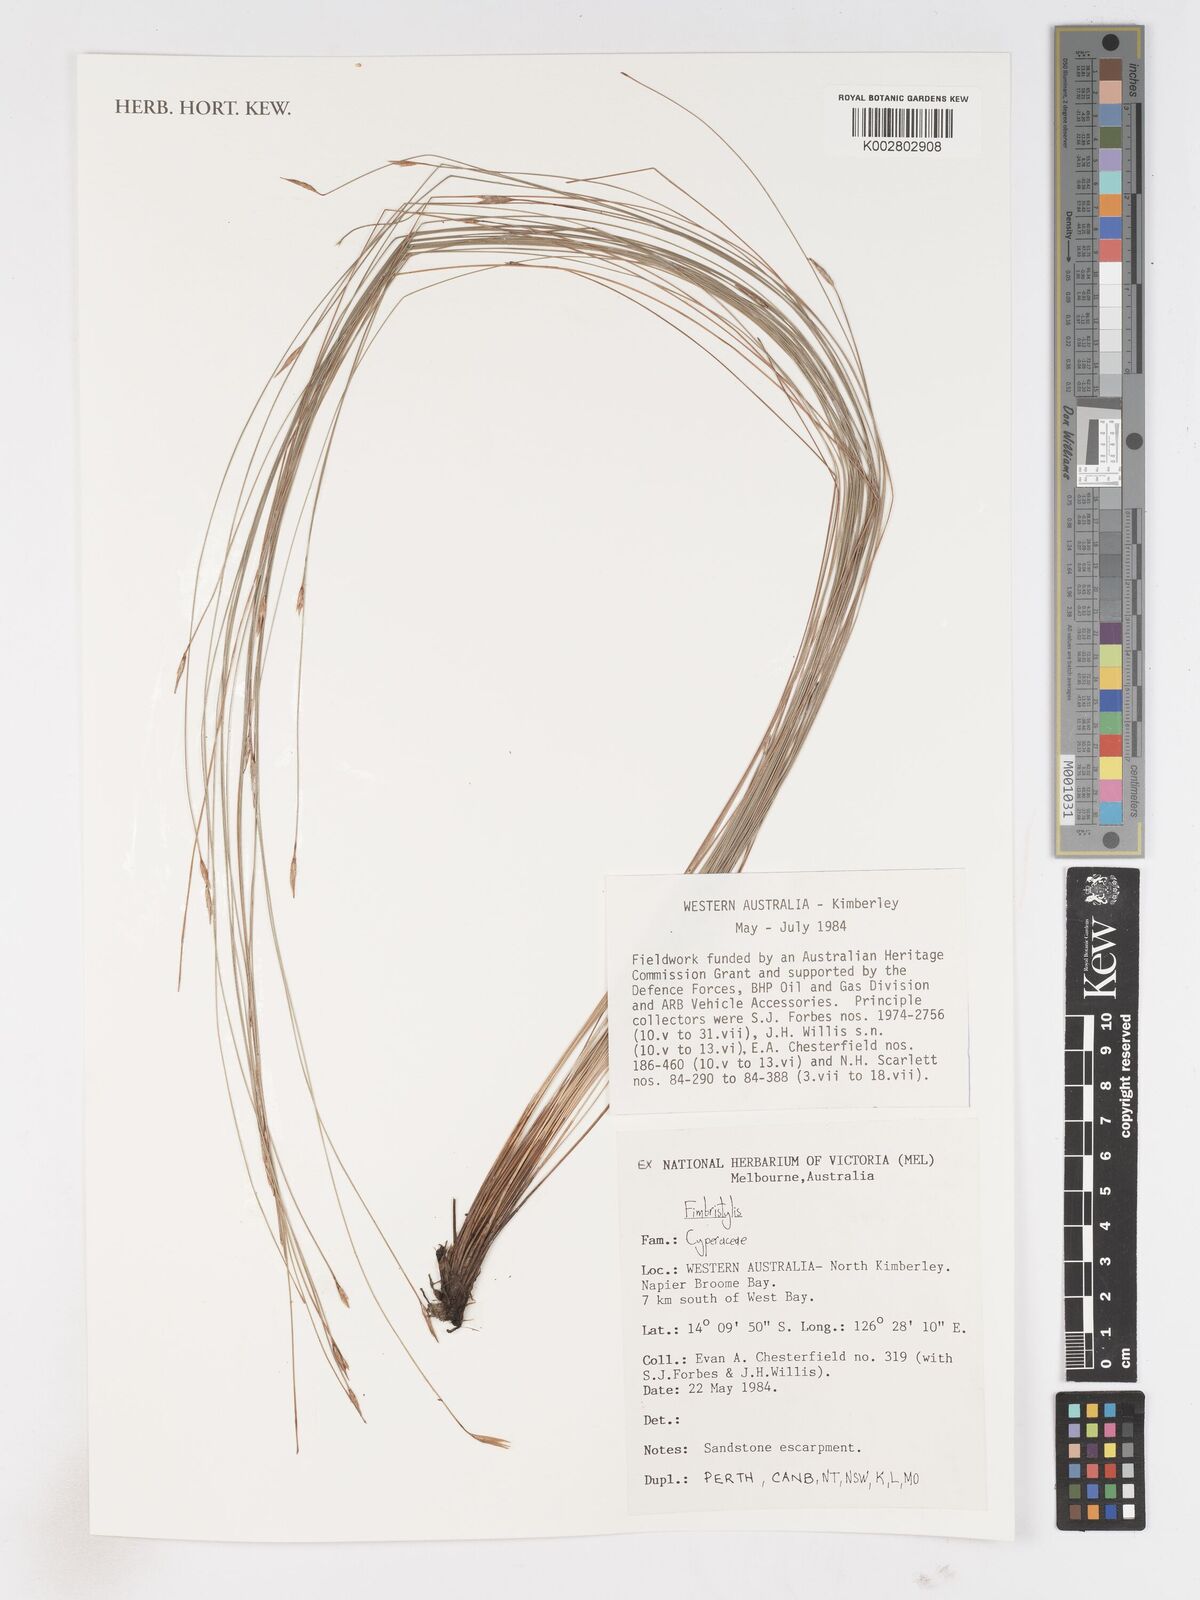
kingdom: Plantae
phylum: Tracheophyta
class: Liliopsida
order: Poales
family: Cyperaceae
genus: Fimbristylis
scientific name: Fimbristylis
